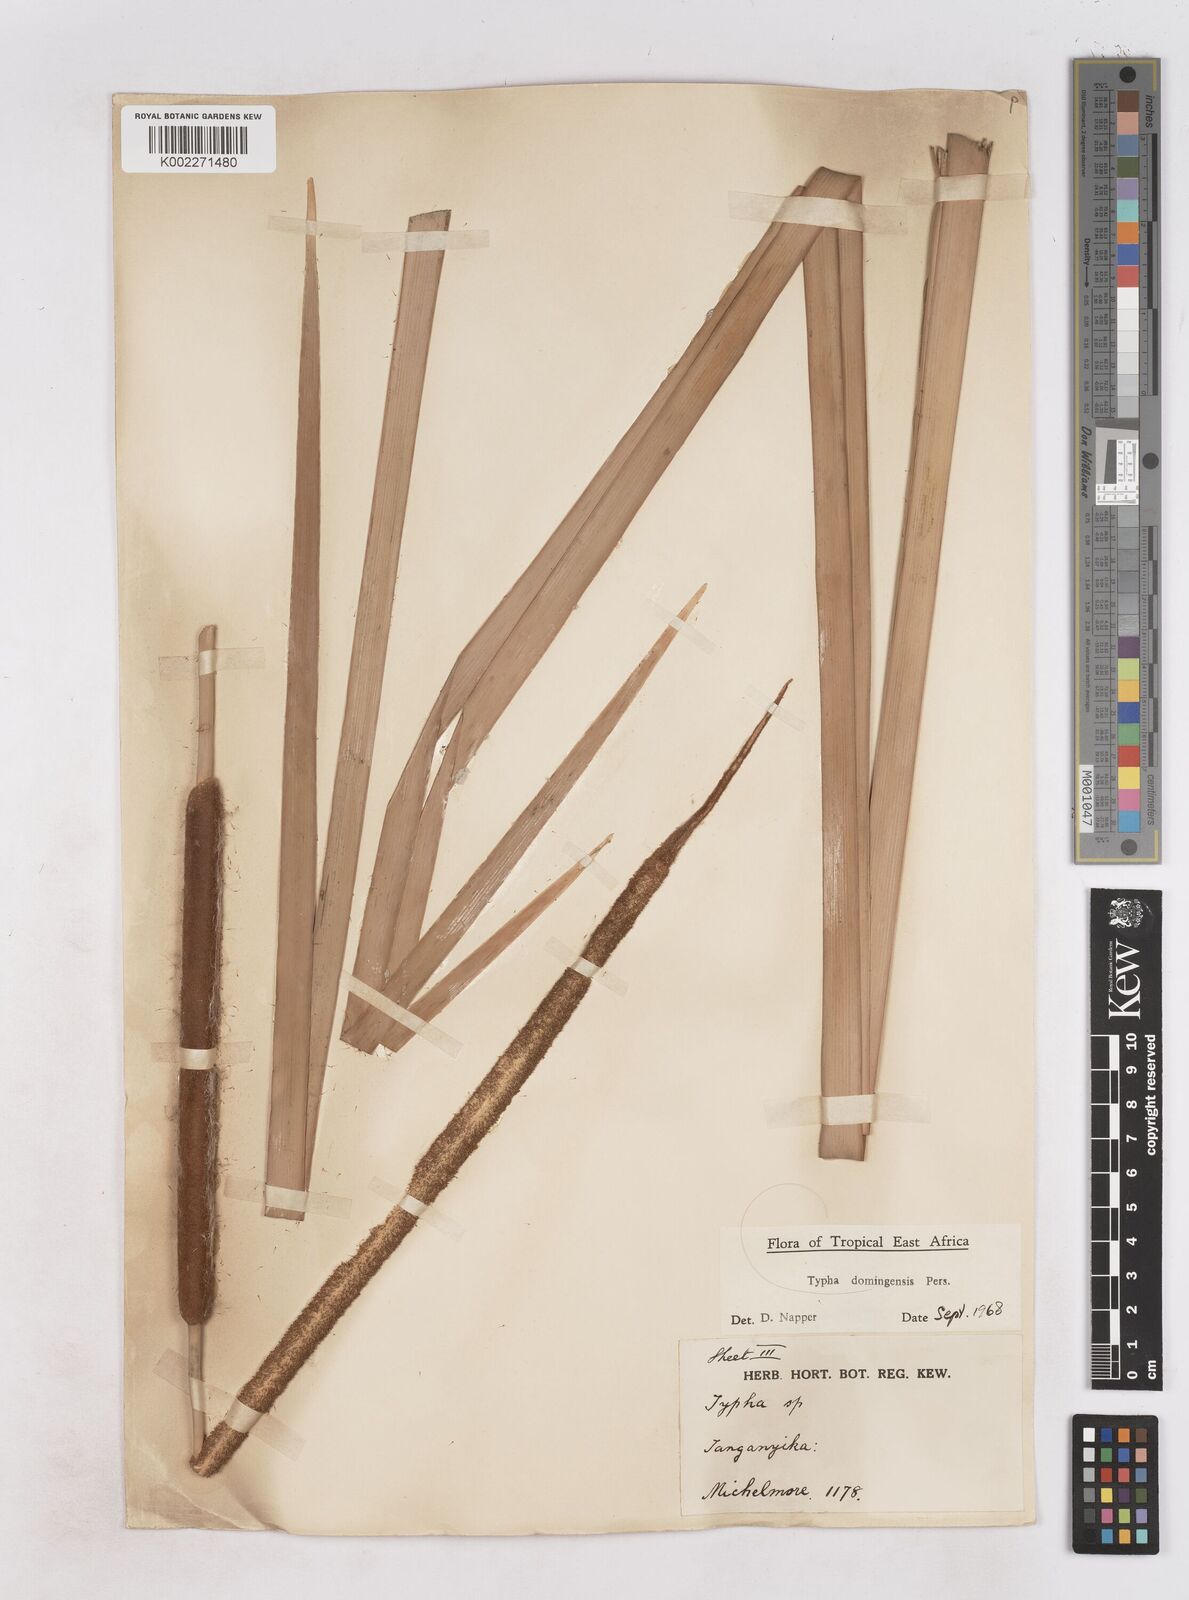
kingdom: Plantae
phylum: Tracheophyta
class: Liliopsida
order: Poales
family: Typhaceae
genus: Typha
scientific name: Typha domingensis
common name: Southern cattail
